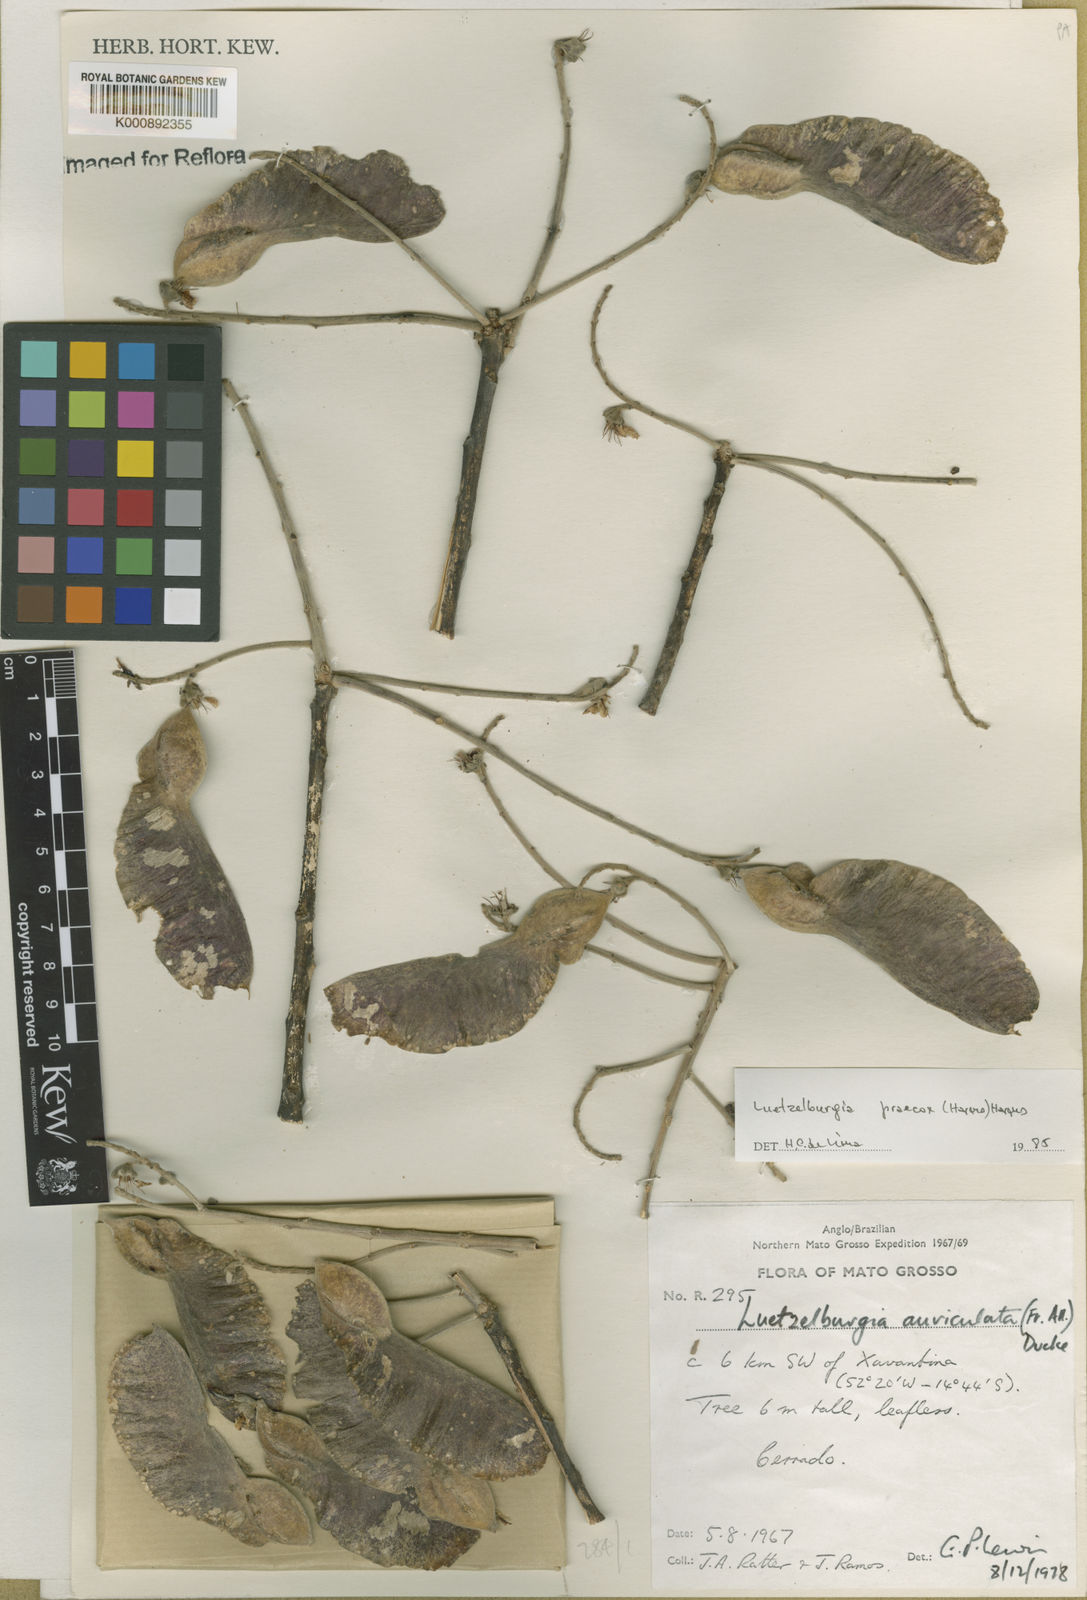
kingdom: Plantae
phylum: Tracheophyta
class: Magnoliopsida
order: Fabales
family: Fabaceae
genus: Luetzelburgia
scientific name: Luetzelburgia praecox
